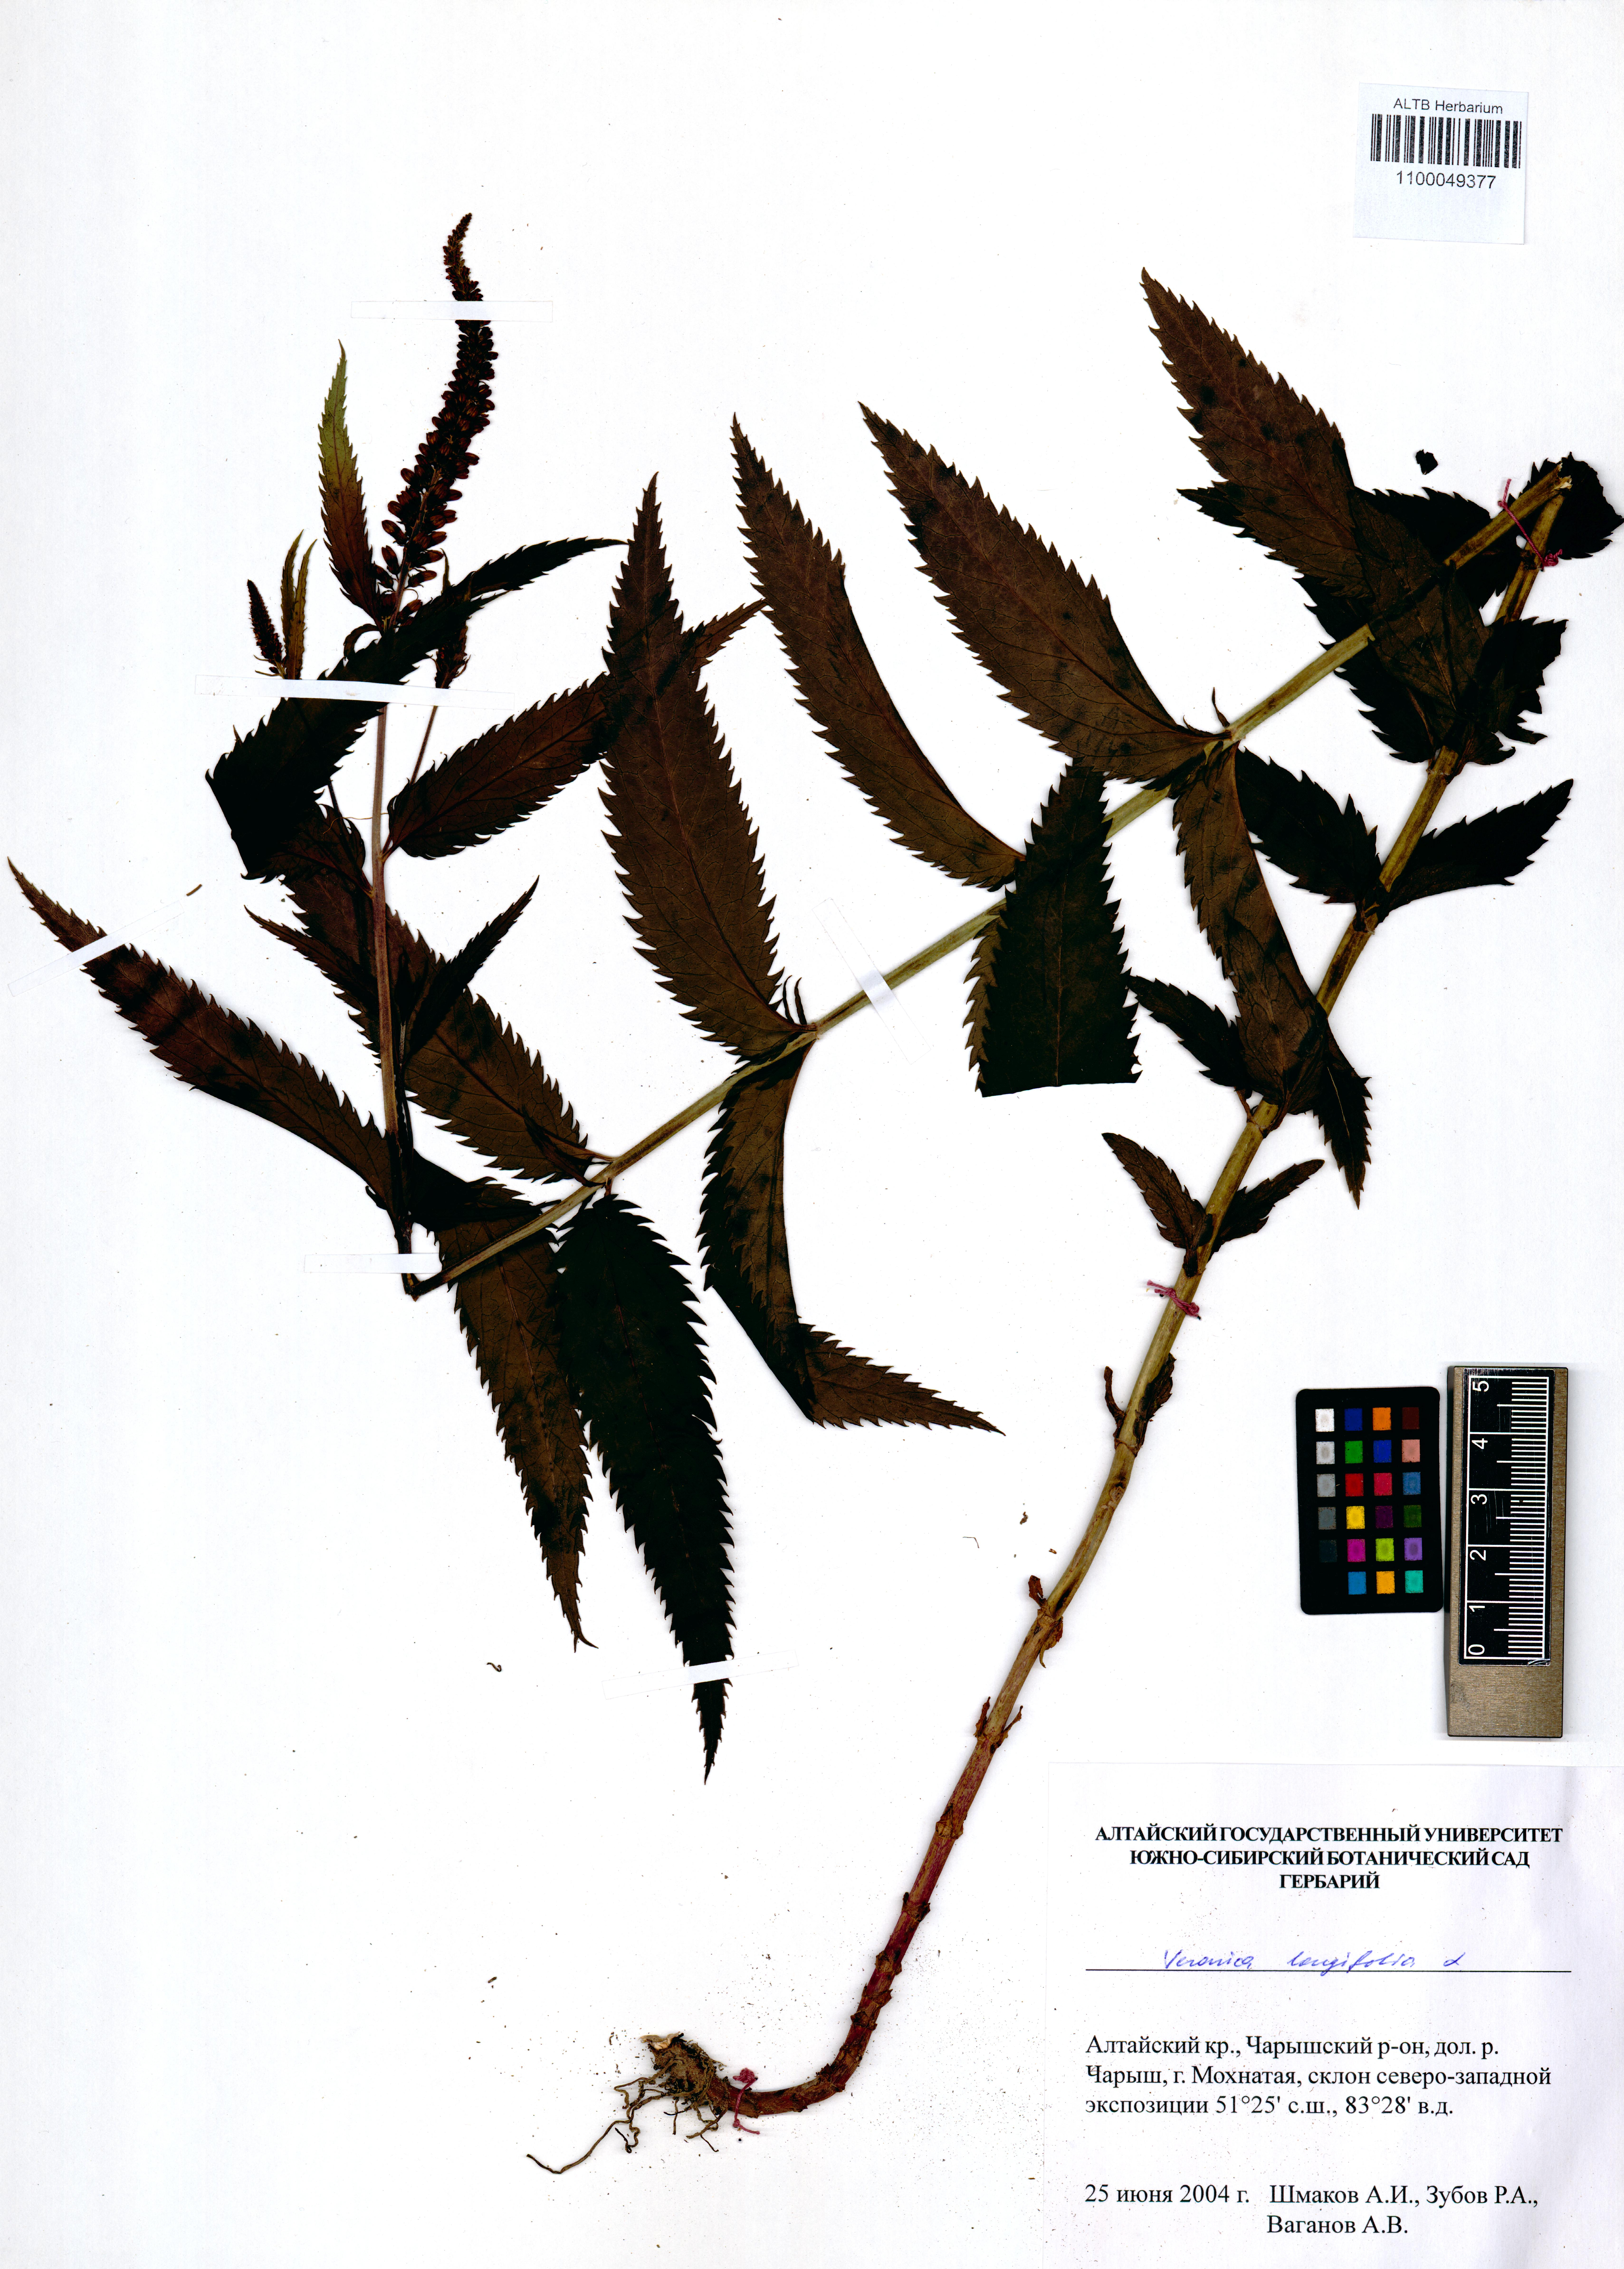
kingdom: Plantae
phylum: Tracheophyta
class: Magnoliopsida
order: Lamiales
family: Plantaginaceae
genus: Veronica
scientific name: Veronica longifolia
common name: Garden speedwell
